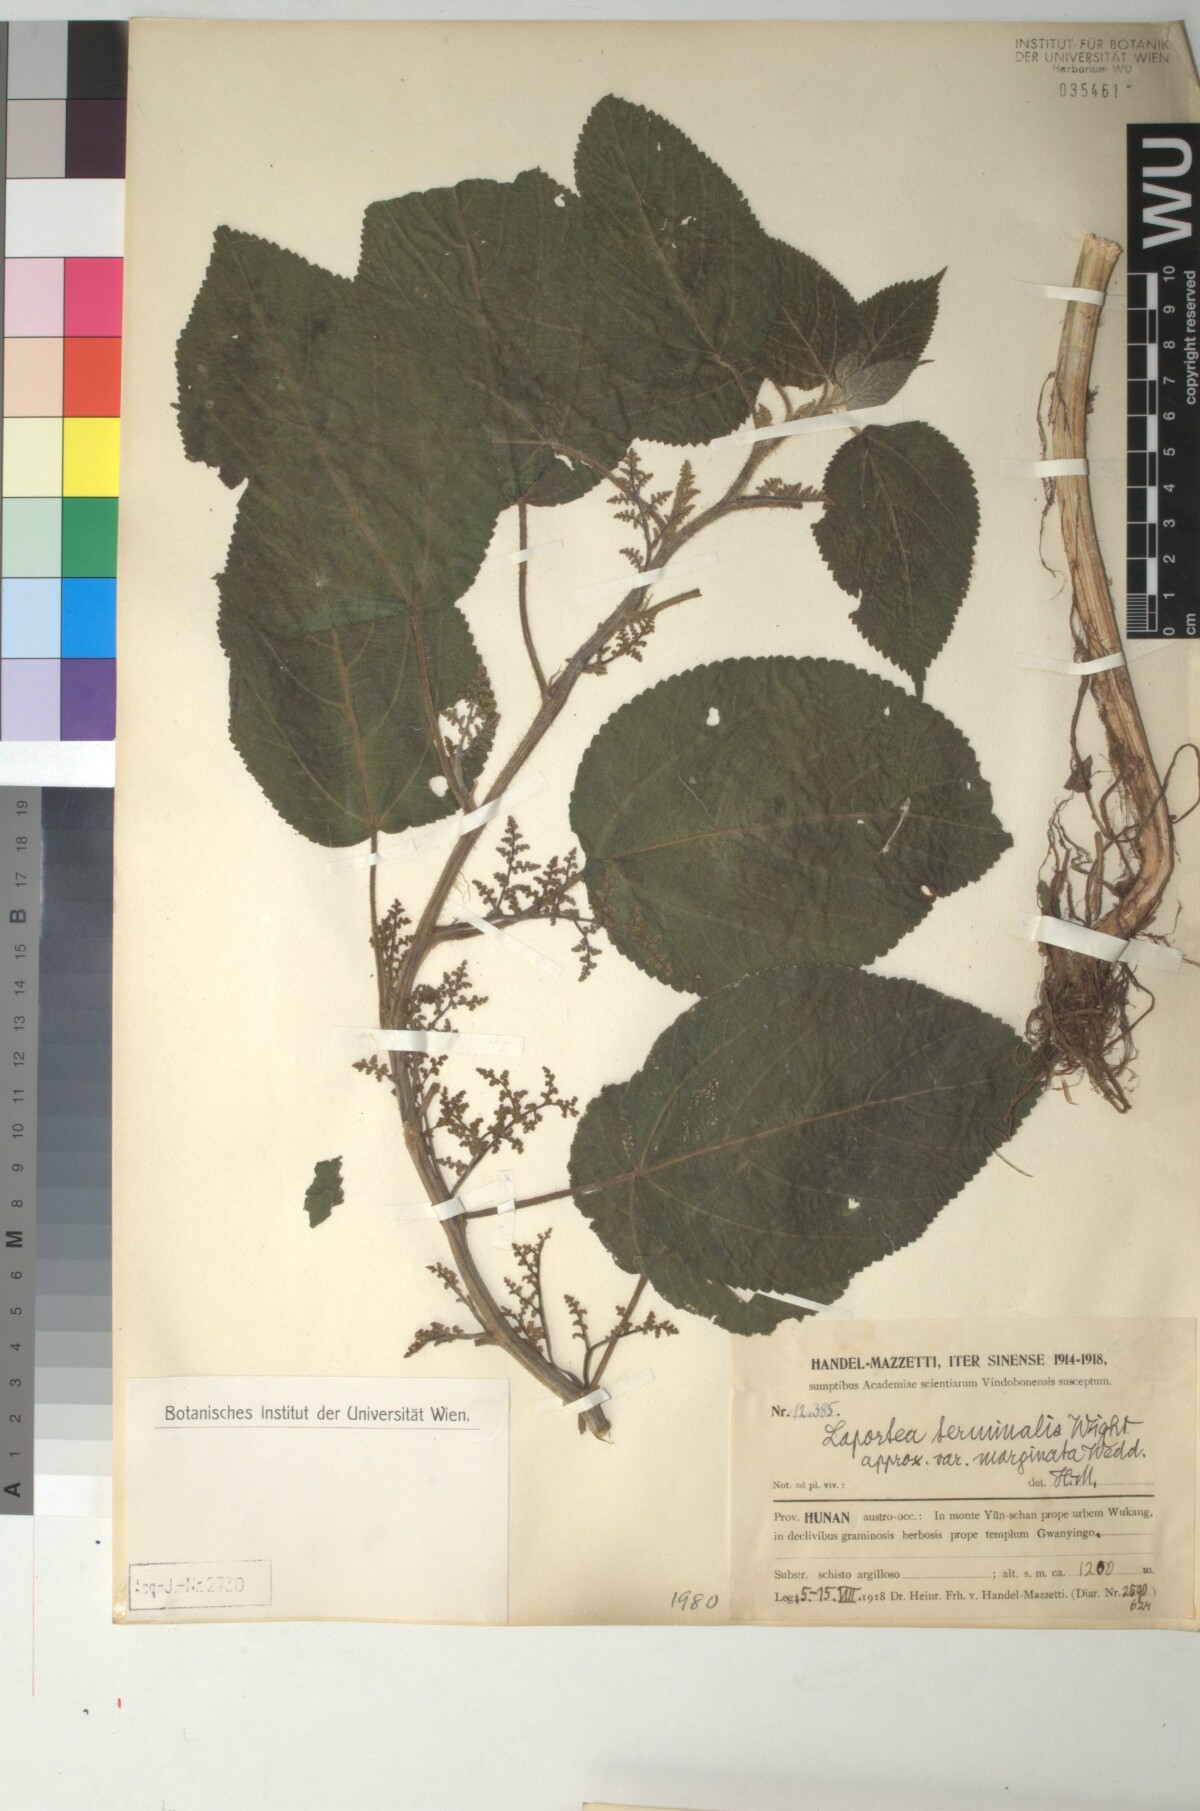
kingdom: Plantae
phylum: Tracheophyta
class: Magnoliopsida
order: Rosales
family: Urticaceae
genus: Laportea
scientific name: Laportea bulbifera
